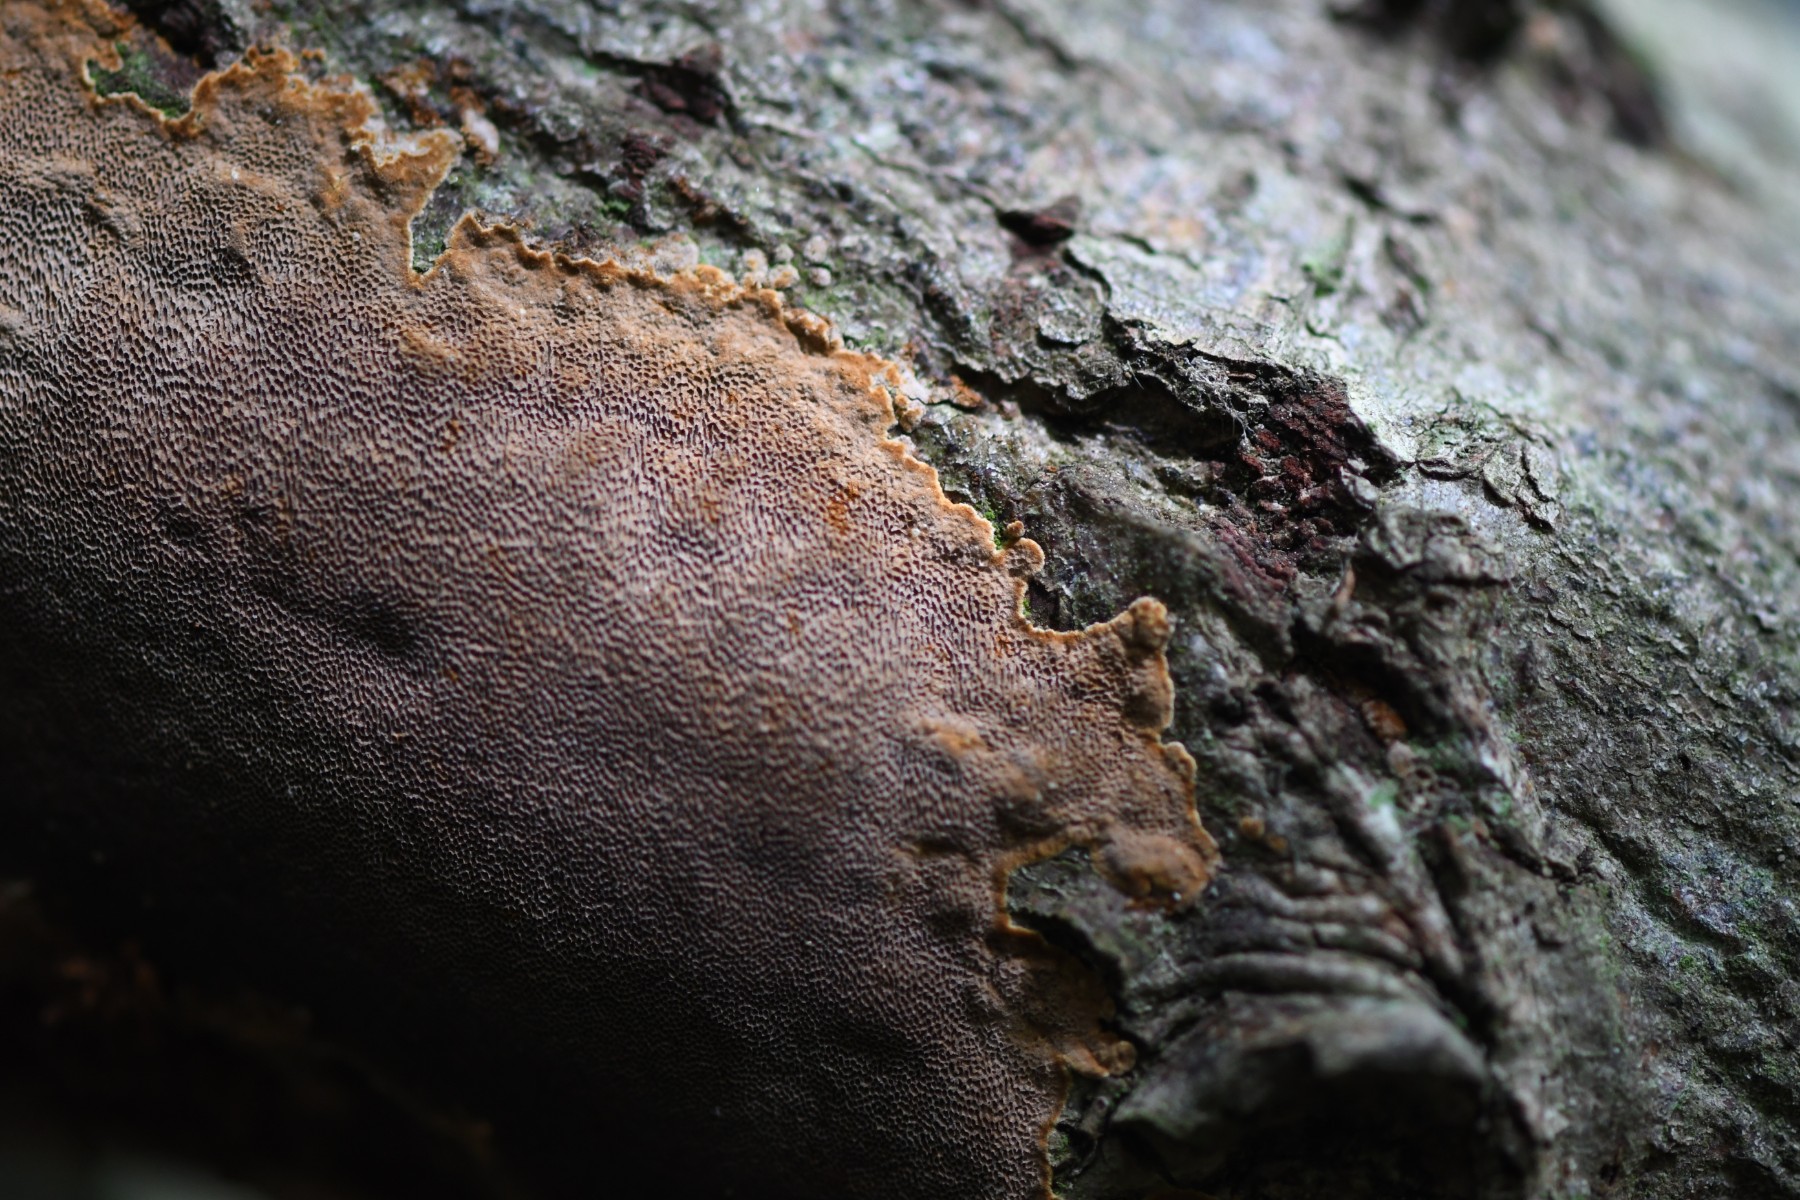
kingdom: Fungi
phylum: Basidiomycota
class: Agaricomycetes
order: Hymenochaetales
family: Hymenochaetaceae
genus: Fuscoporia
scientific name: Fuscoporia ferrea
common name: skorpe-ildporesvamp
